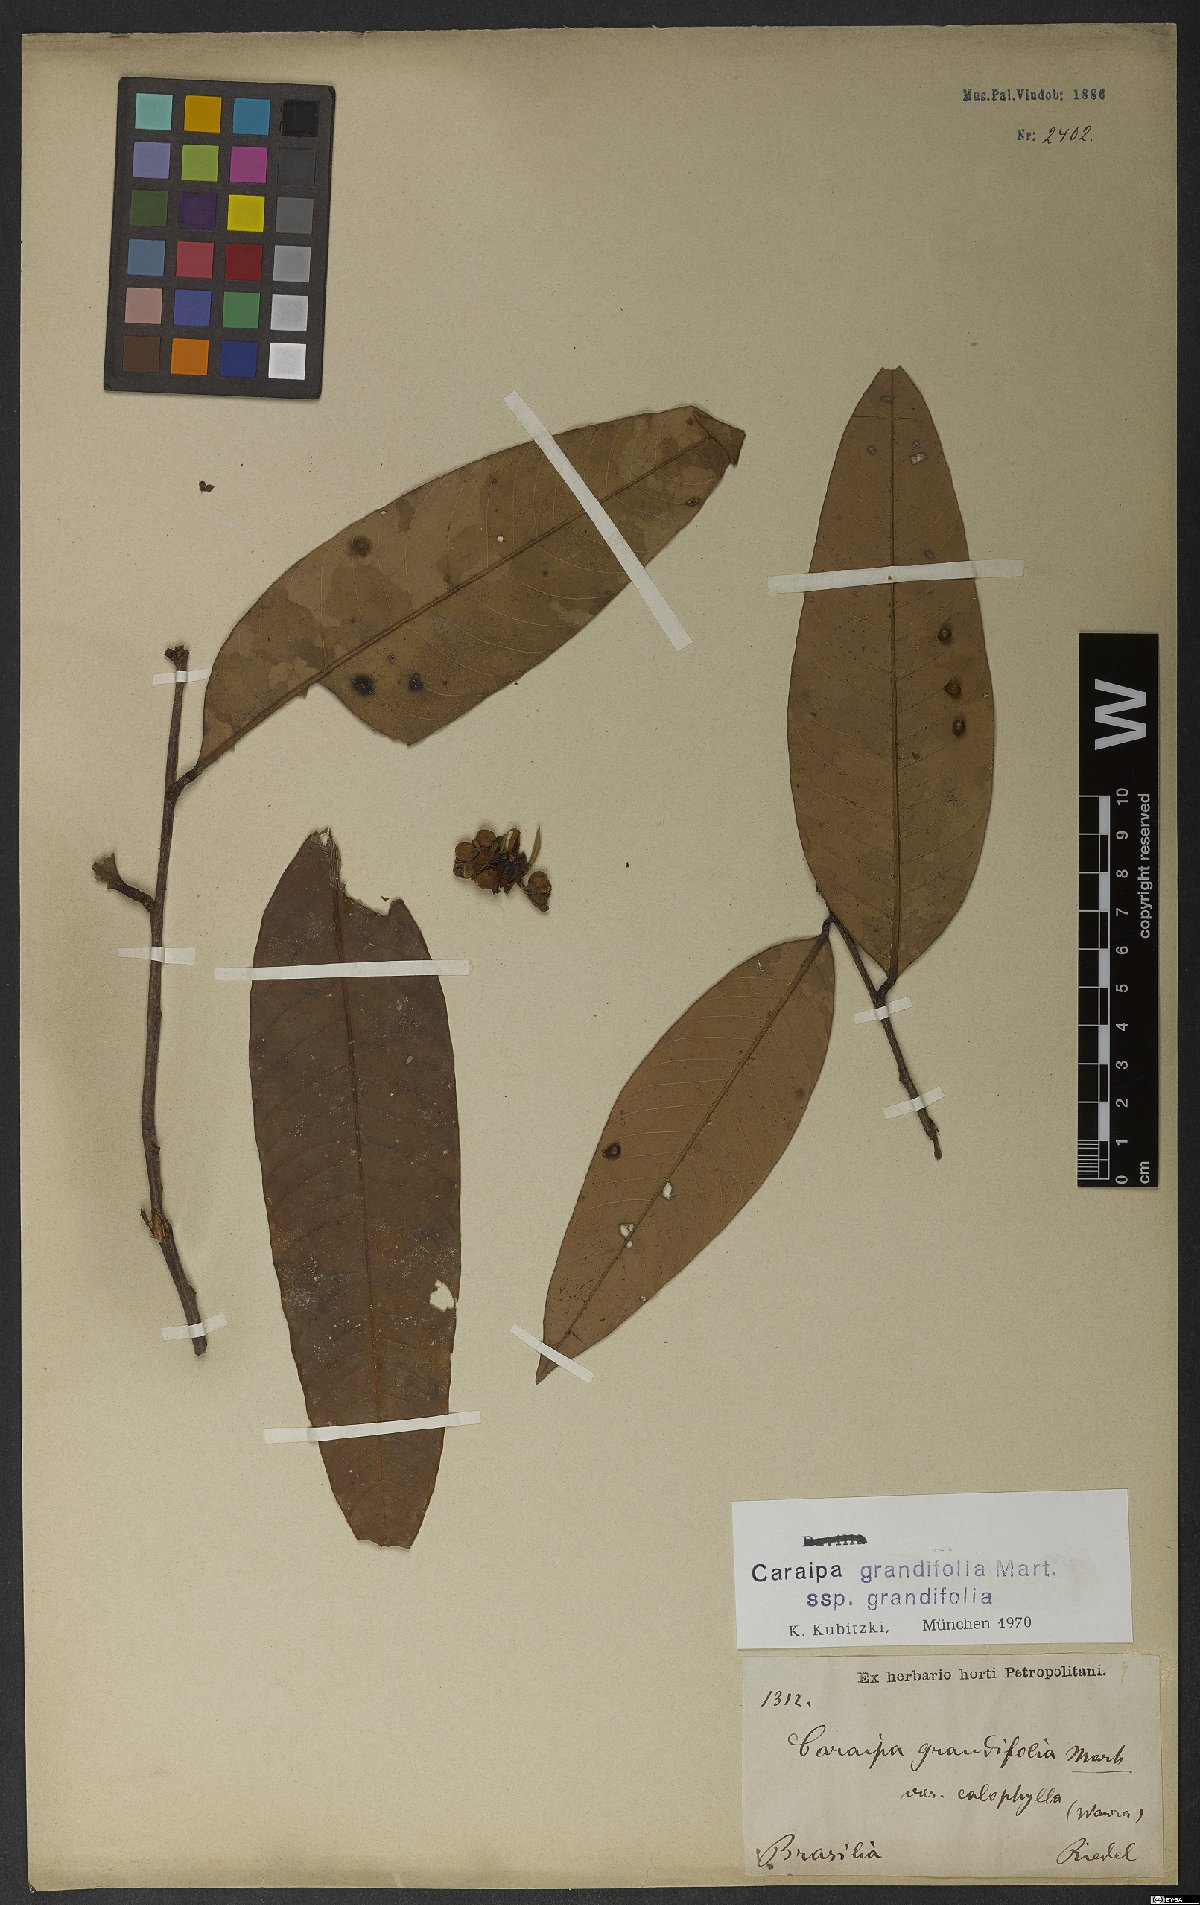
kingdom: Plantae
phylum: Tracheophyta
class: Magnoliopsida
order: Malpighiales
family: Calophyllaceae
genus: Caraipa
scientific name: Caraipa grandifolia
